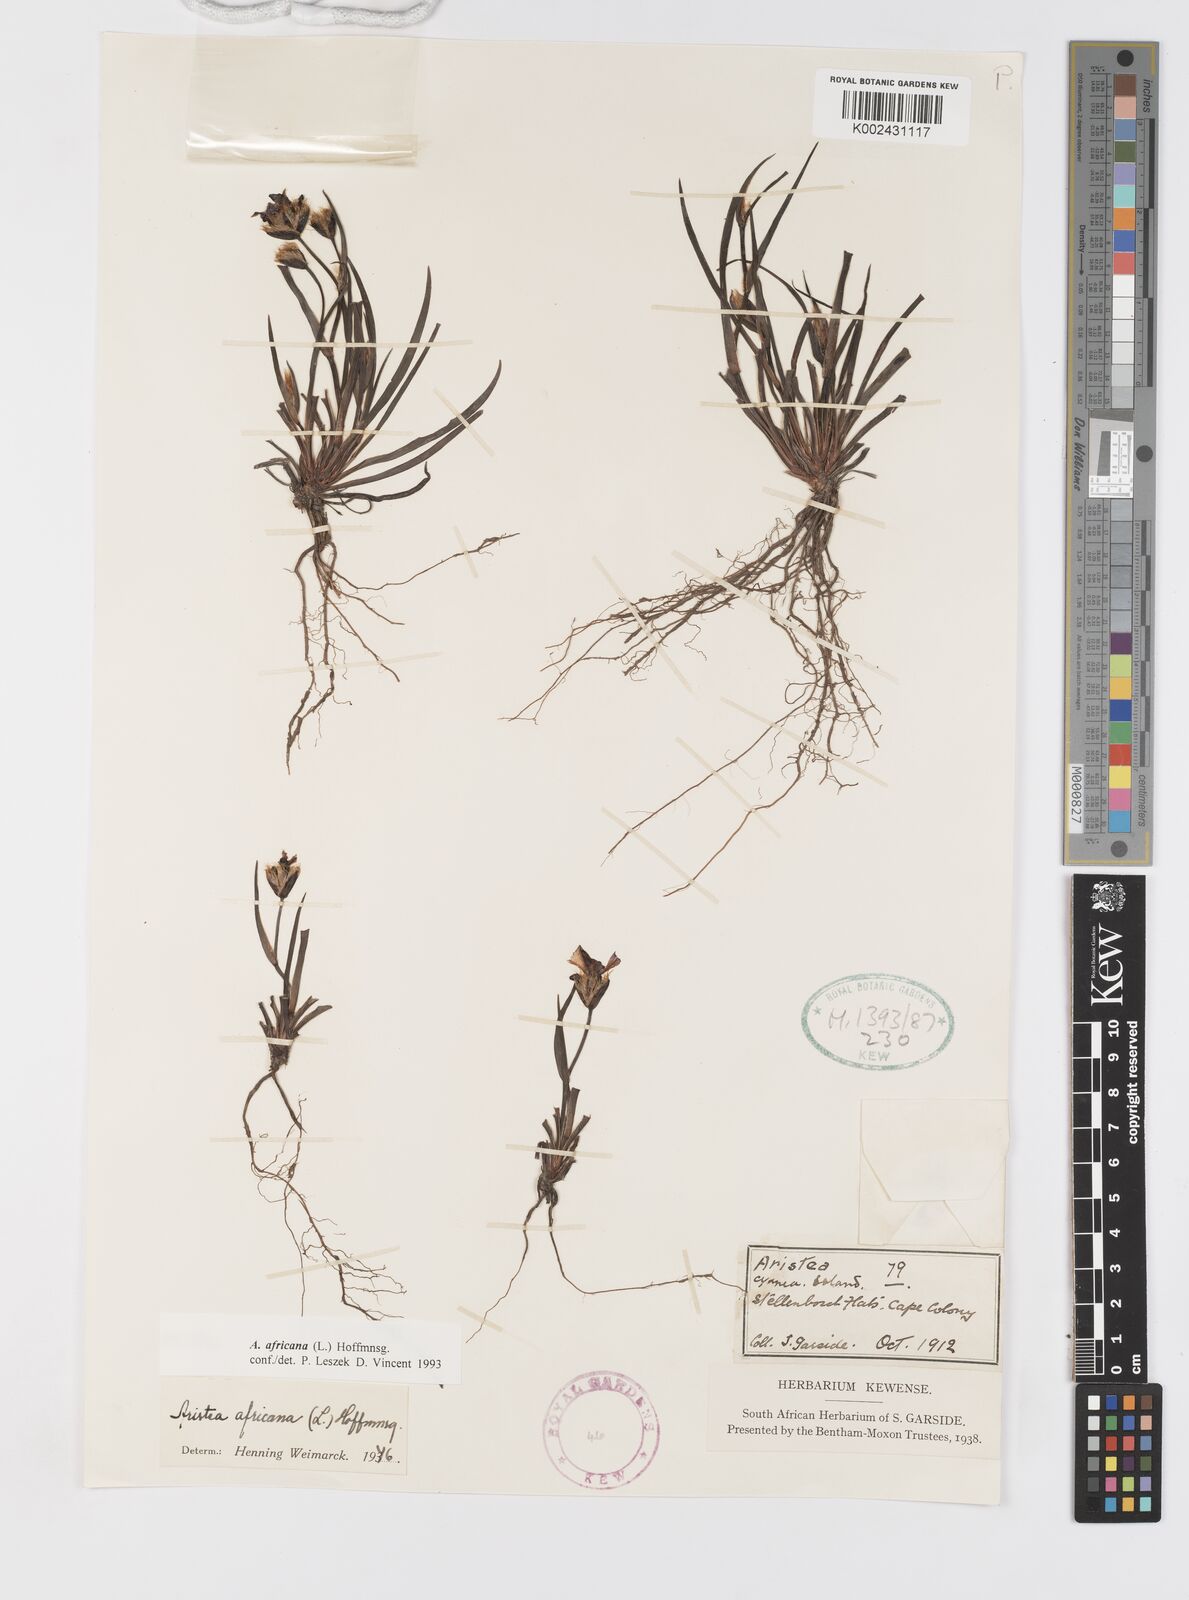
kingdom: Plantae
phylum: Tracheophyta
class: Liliopsida
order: Asparagales
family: Iridaceae
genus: Aristea
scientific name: Aristea africana
